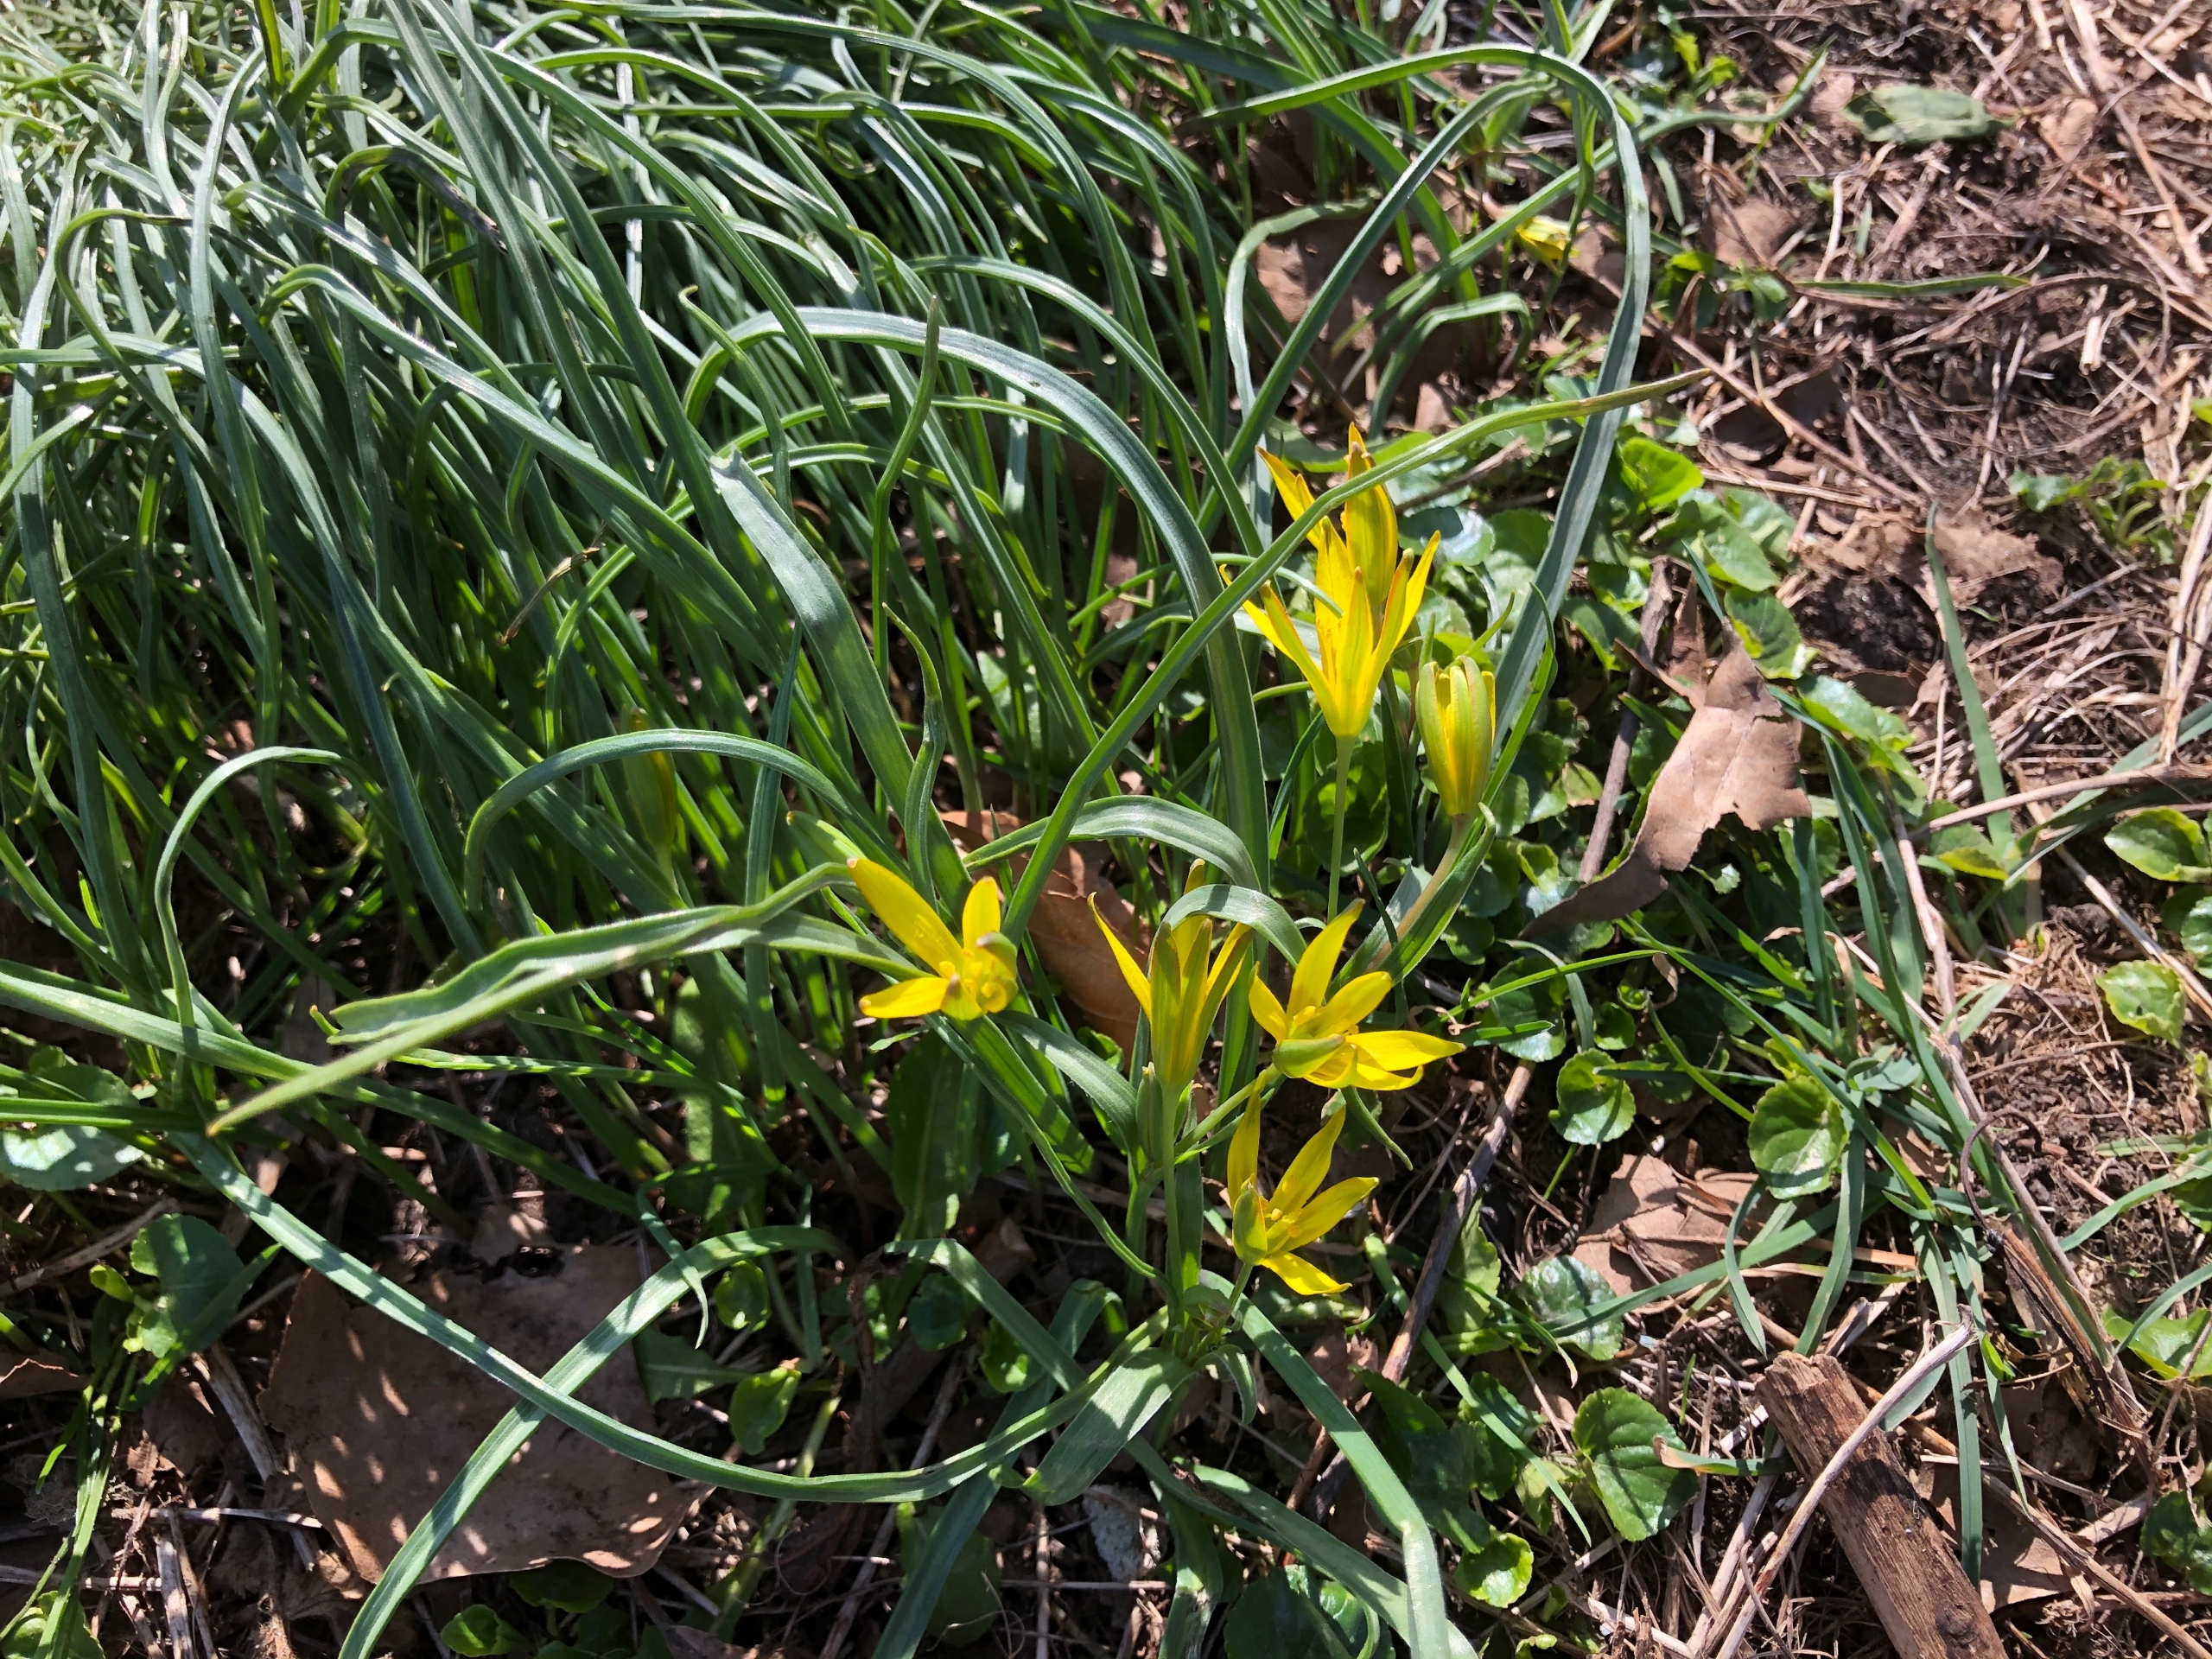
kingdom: Plantae
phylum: Tracheophyta
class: Liliopsida
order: Liliales
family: Liliaceae
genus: Gagea
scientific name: Gagea pratensis
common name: Eng-guldstjerne
